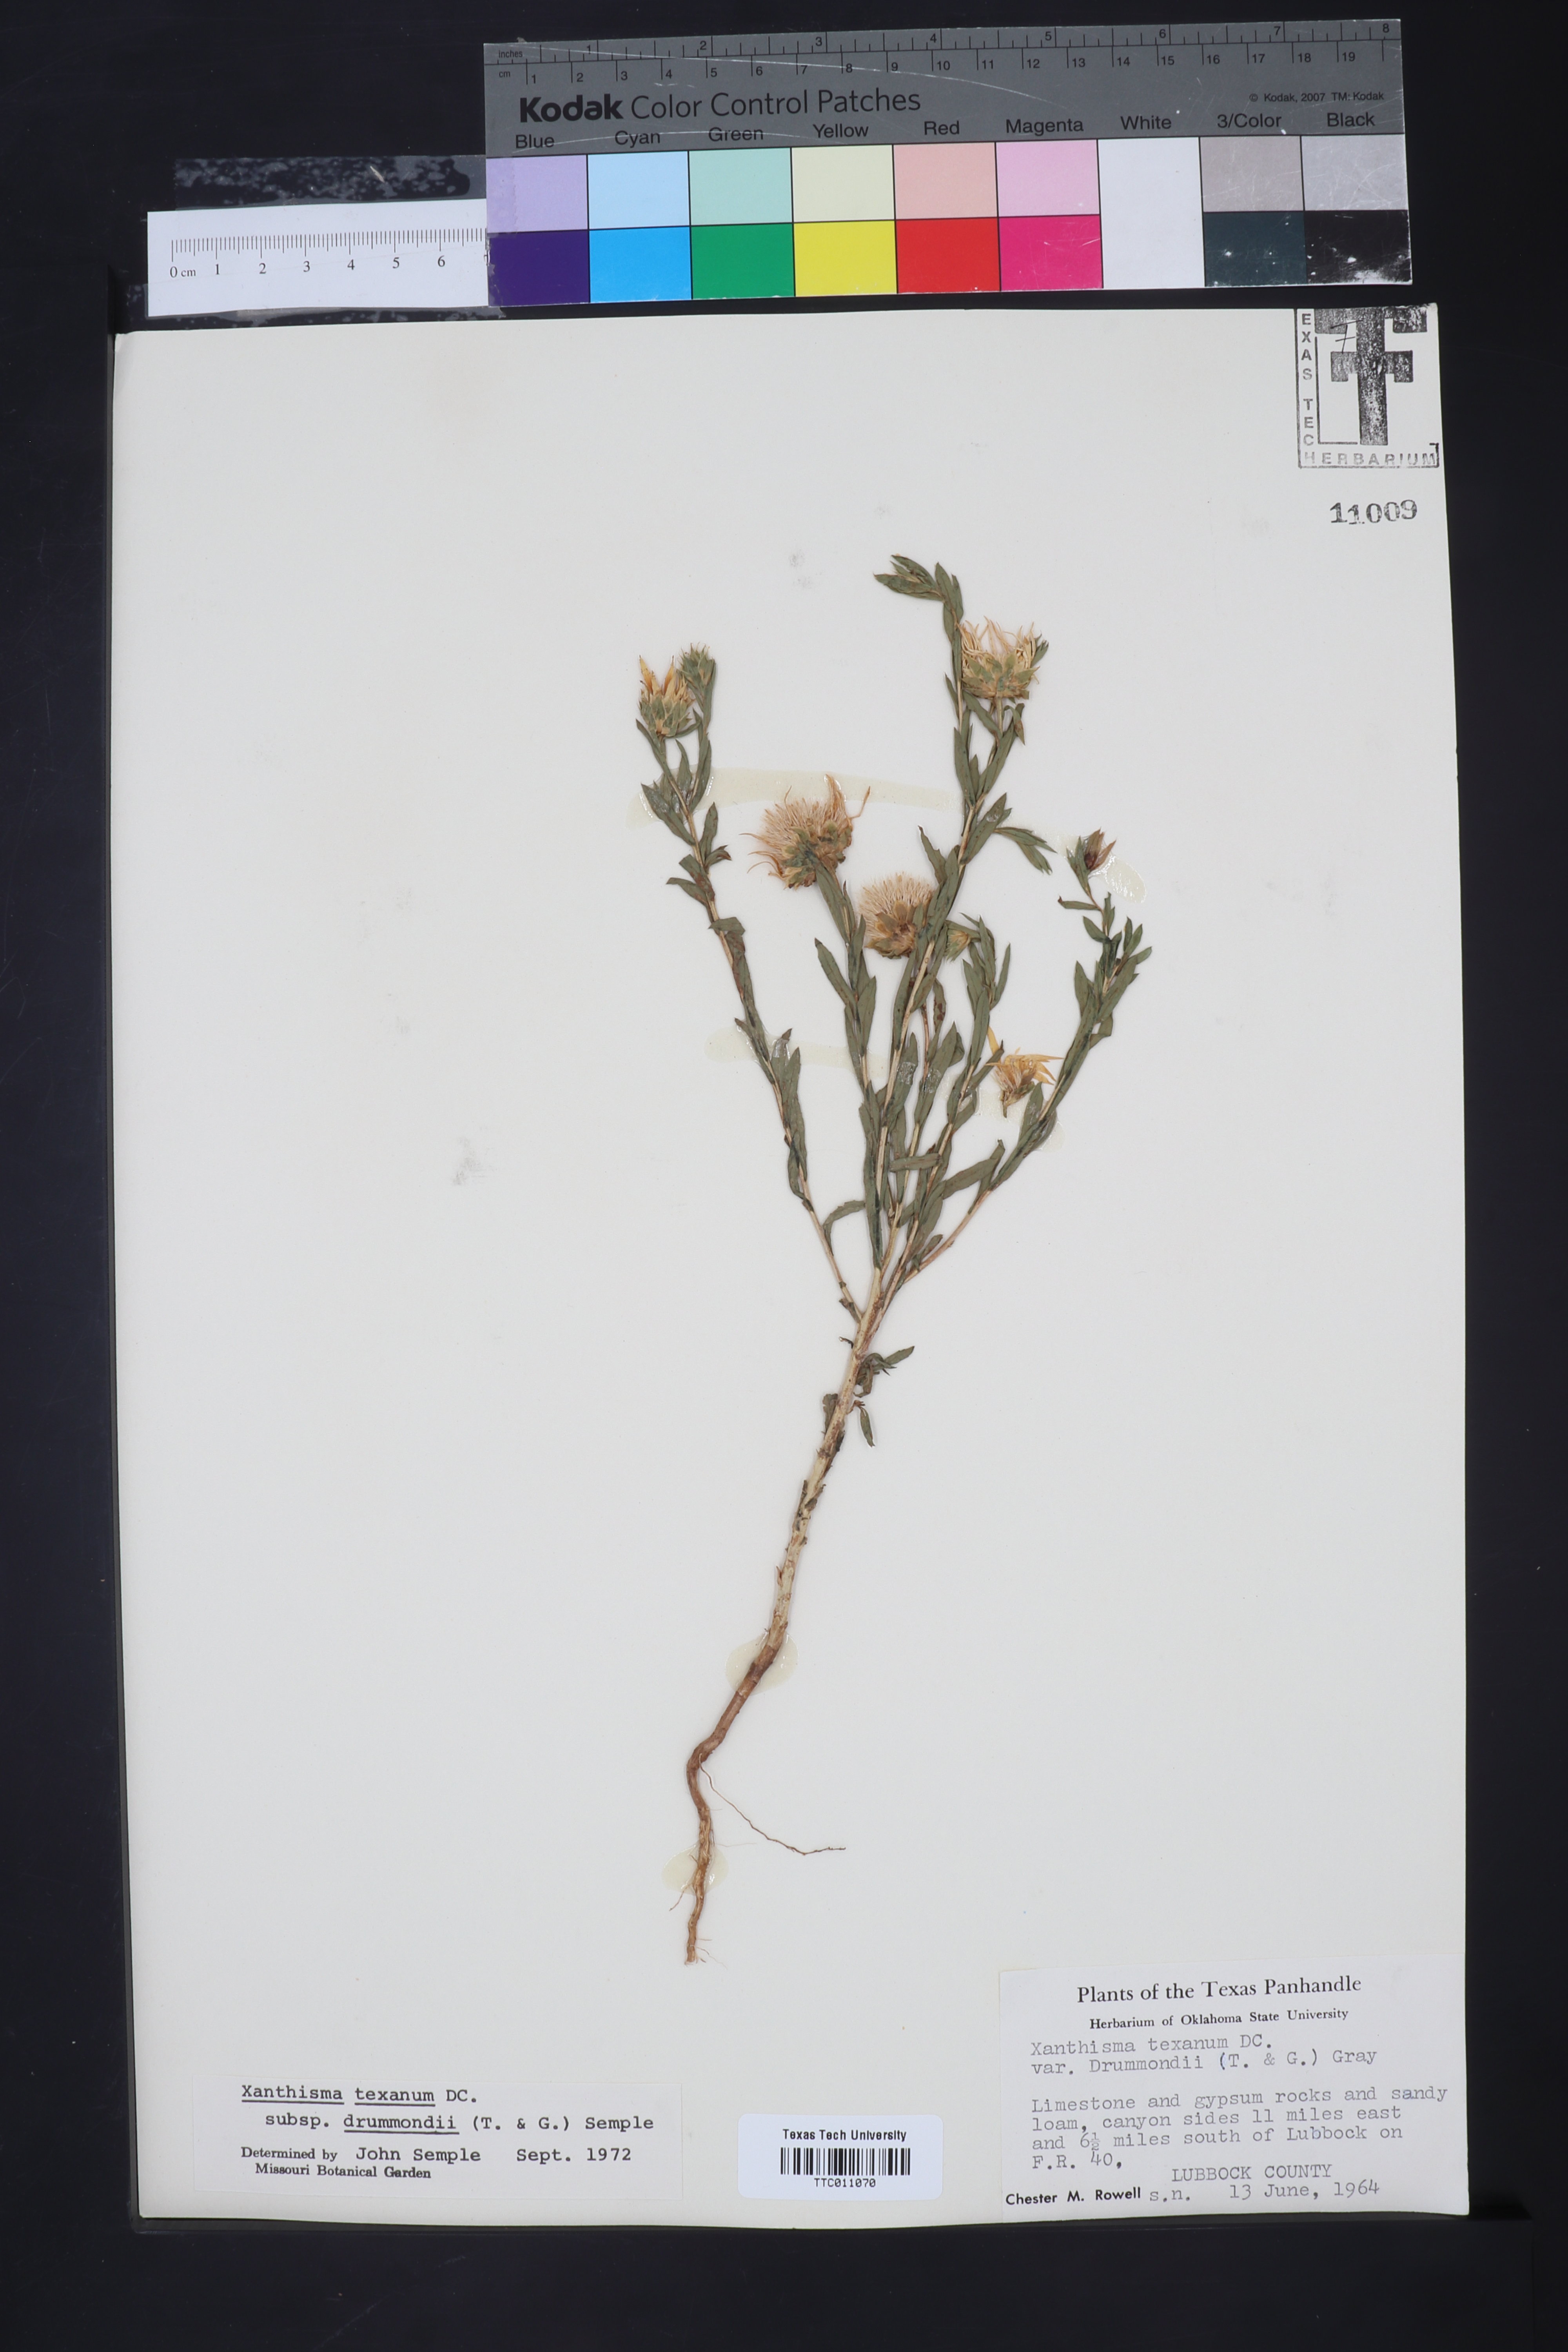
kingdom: Plantae
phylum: Tracheophyta
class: Magnoliopsida
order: Asterales
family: Asteraceae
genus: Xanthisma
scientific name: Xanthisma texanum
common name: Texas sleepy daisy
